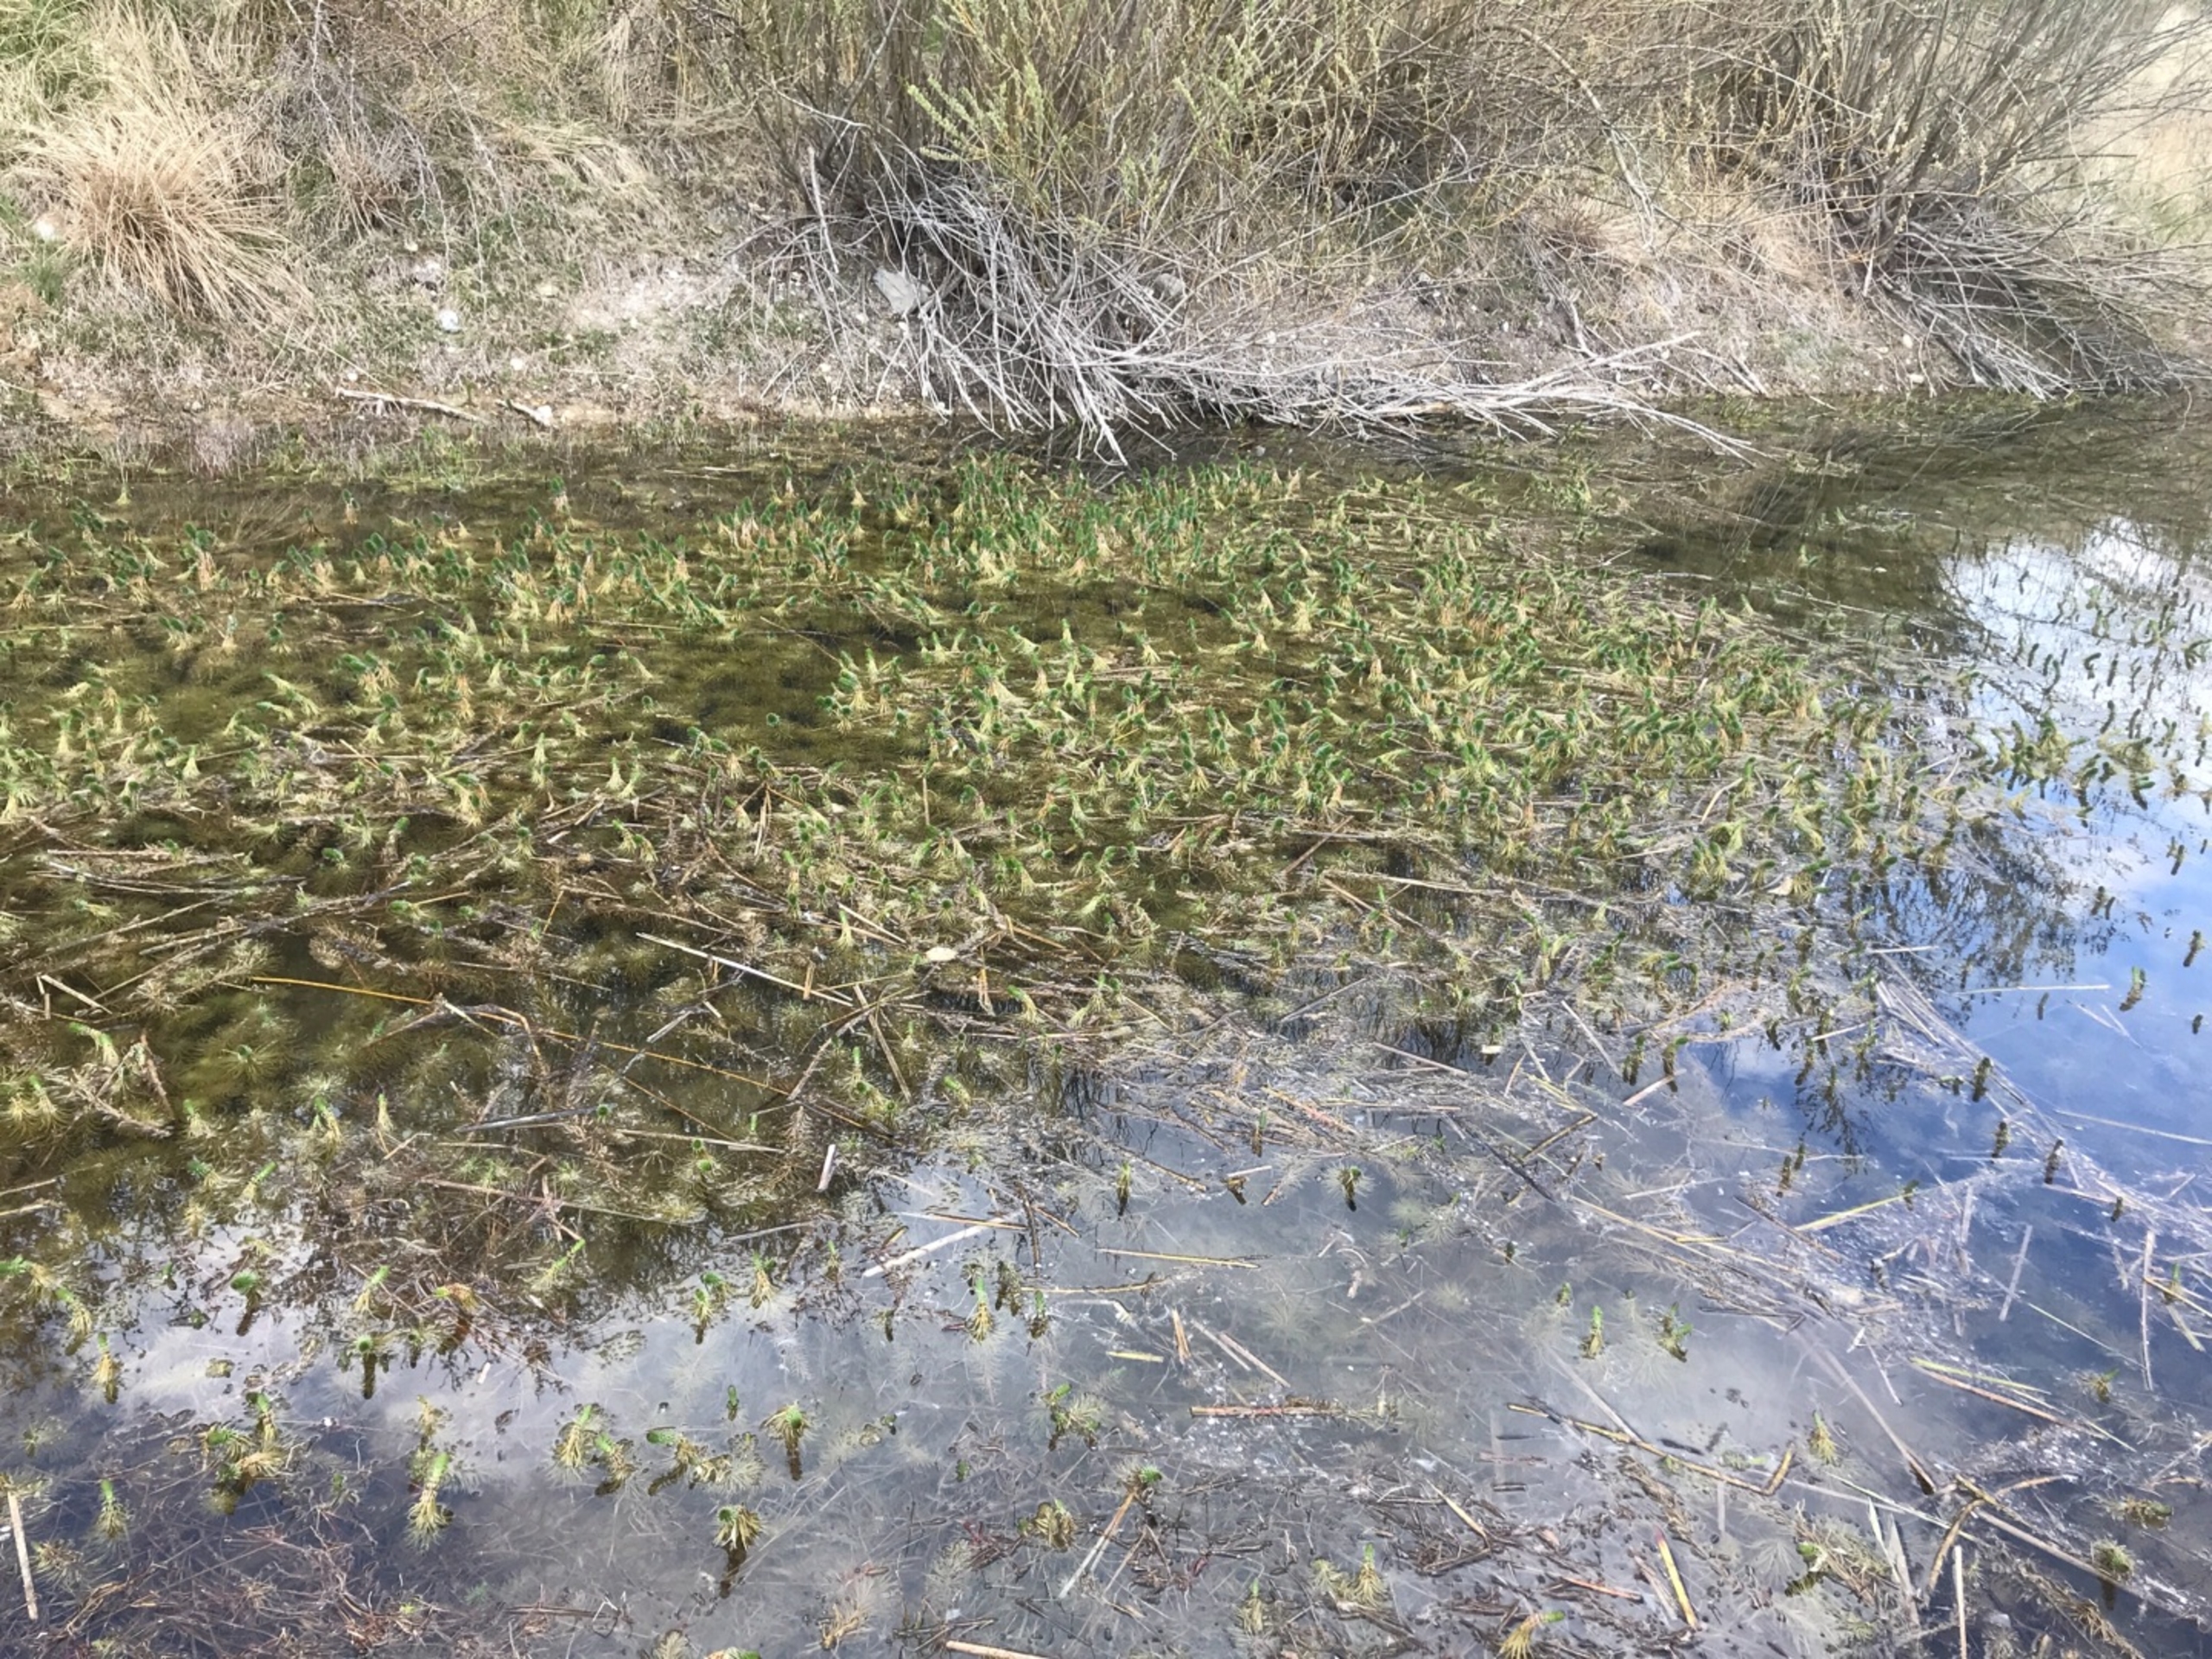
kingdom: Plantae
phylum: Tracheophyta
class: Magnoliopsida
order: Lamiales
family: Plantaginaceae
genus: Hippuris
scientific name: Hippuris vulgaris
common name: Vandspir
